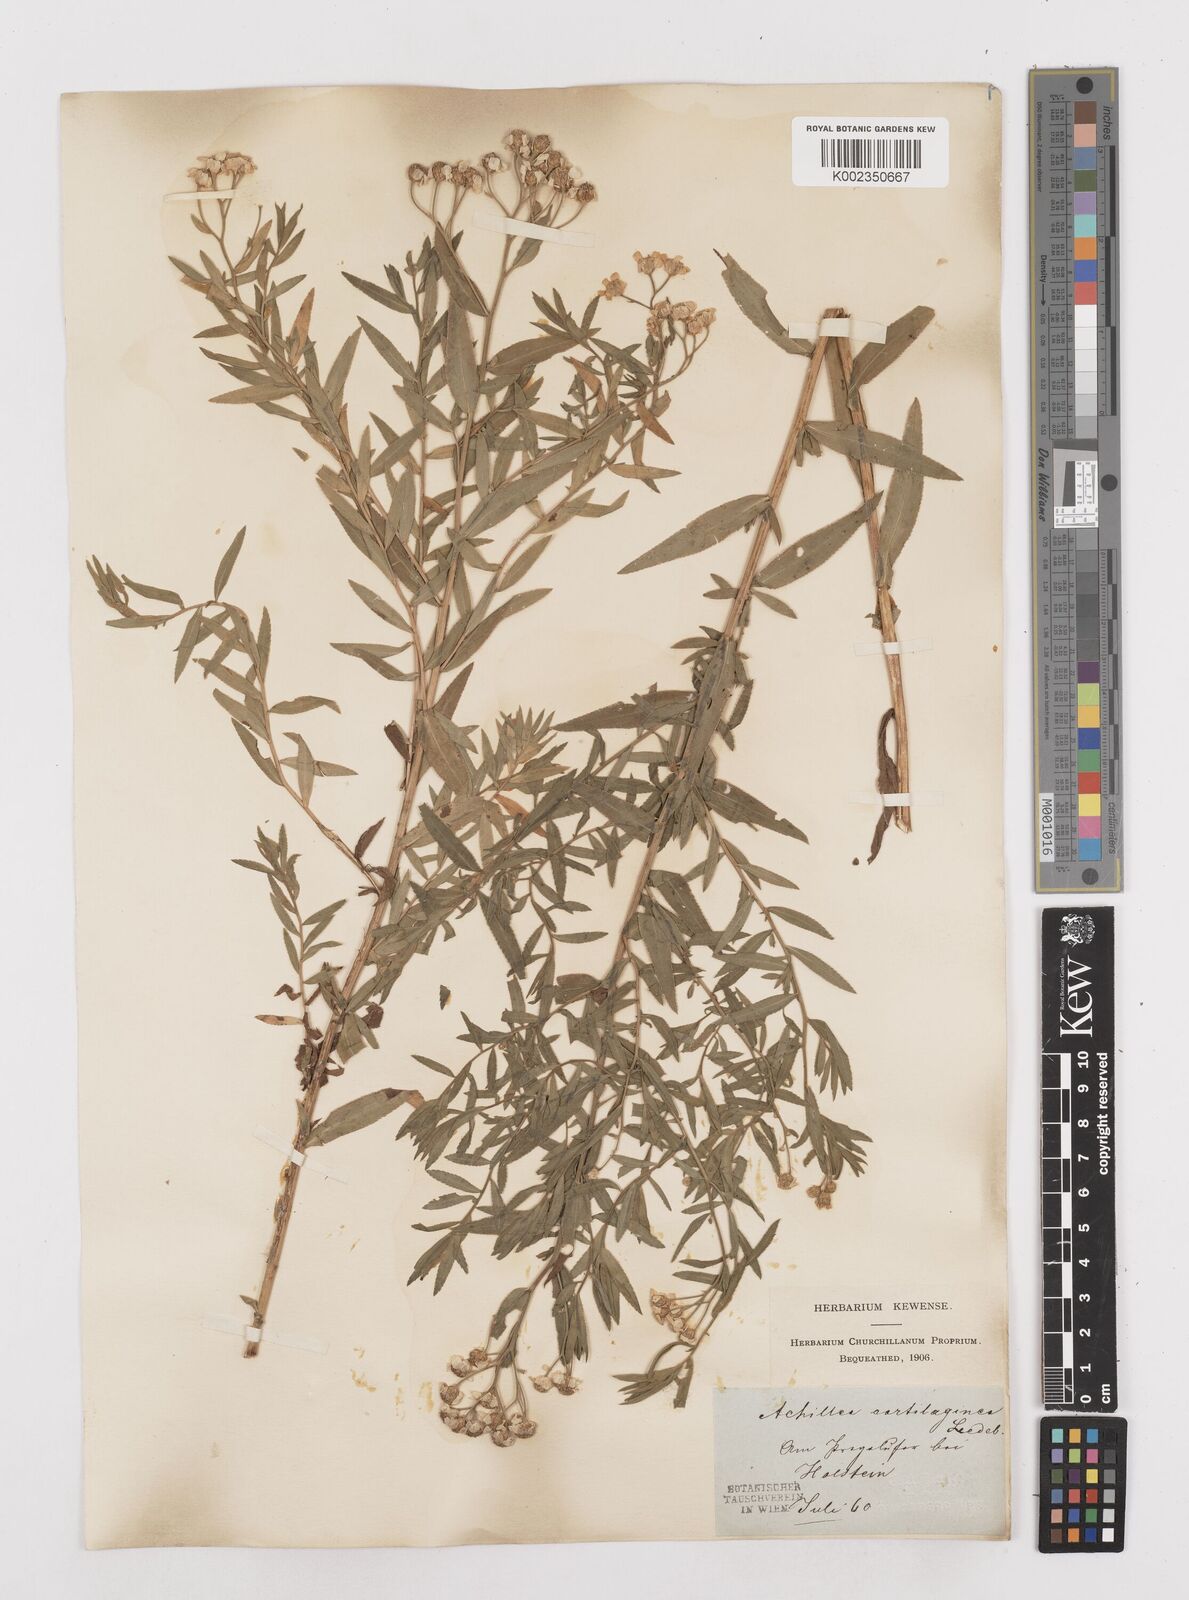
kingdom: Plantae
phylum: Tracheophyta
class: Magnoliopsida
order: Asterales
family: Asteraceae
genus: Achillea
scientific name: Achillea salicifolia
